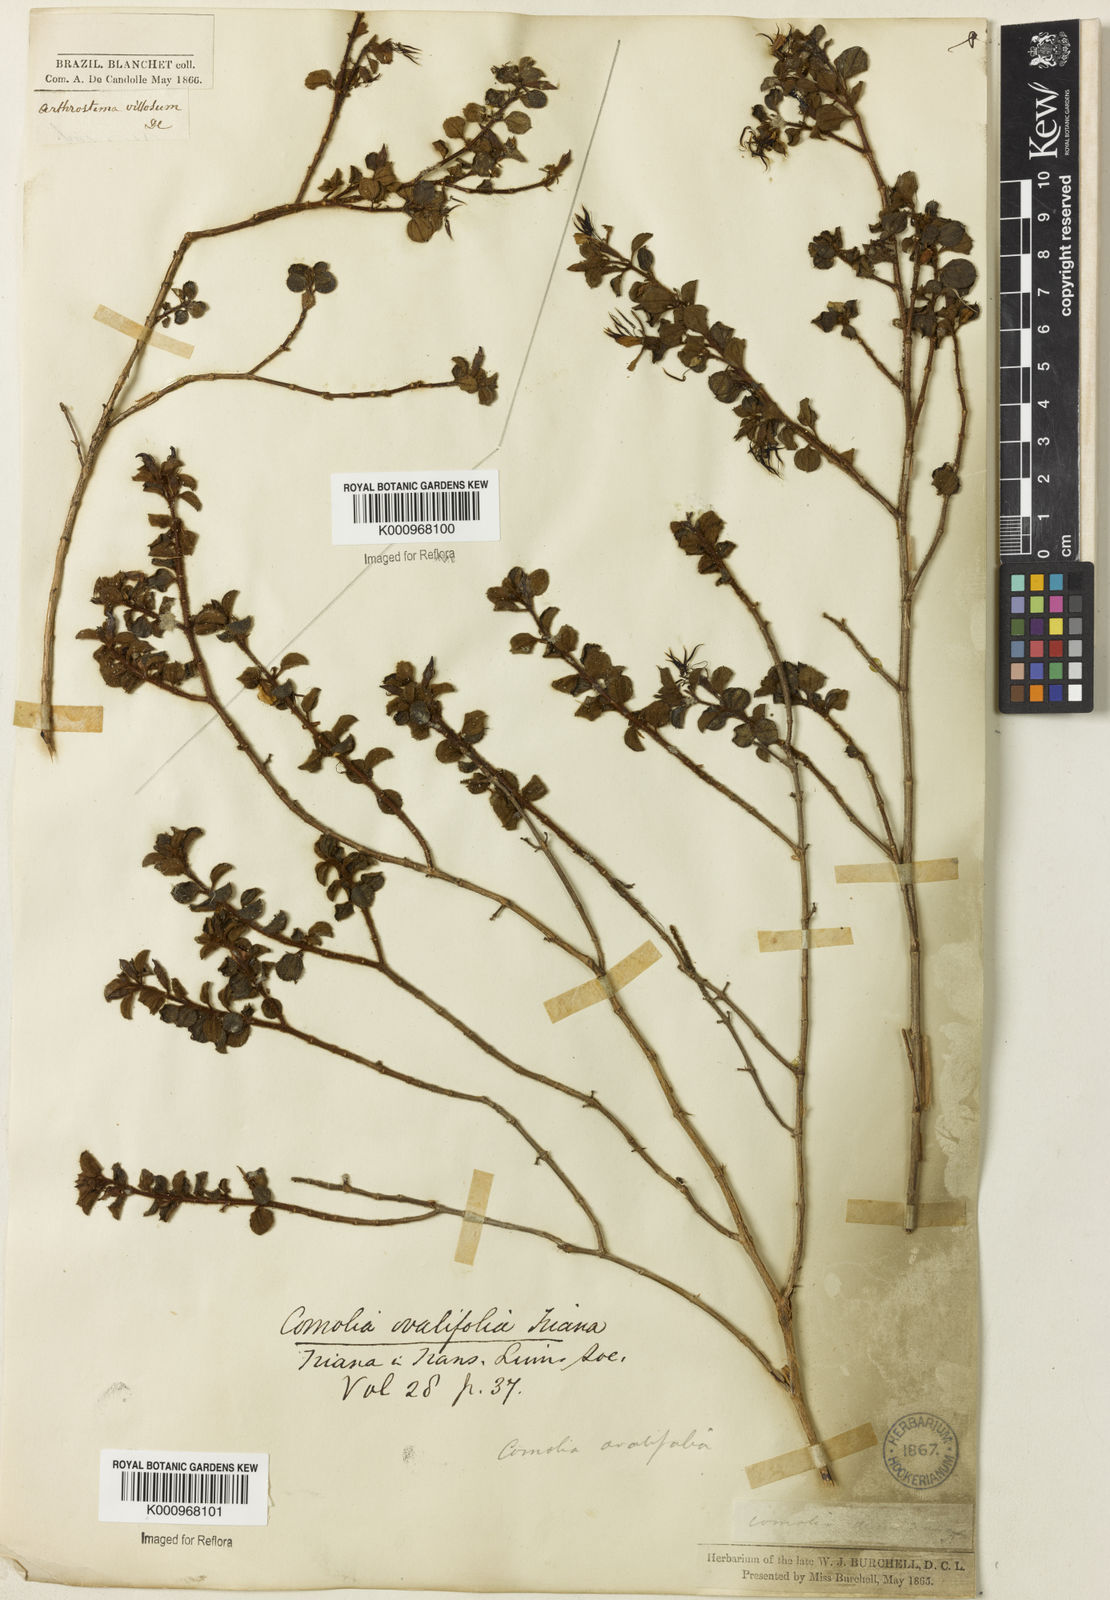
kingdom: Plantae
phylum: Tracheophyta
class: Magnoliopsida
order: Myrtales
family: Melastomataceae
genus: Comolia
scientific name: Comolia ovalifolia
